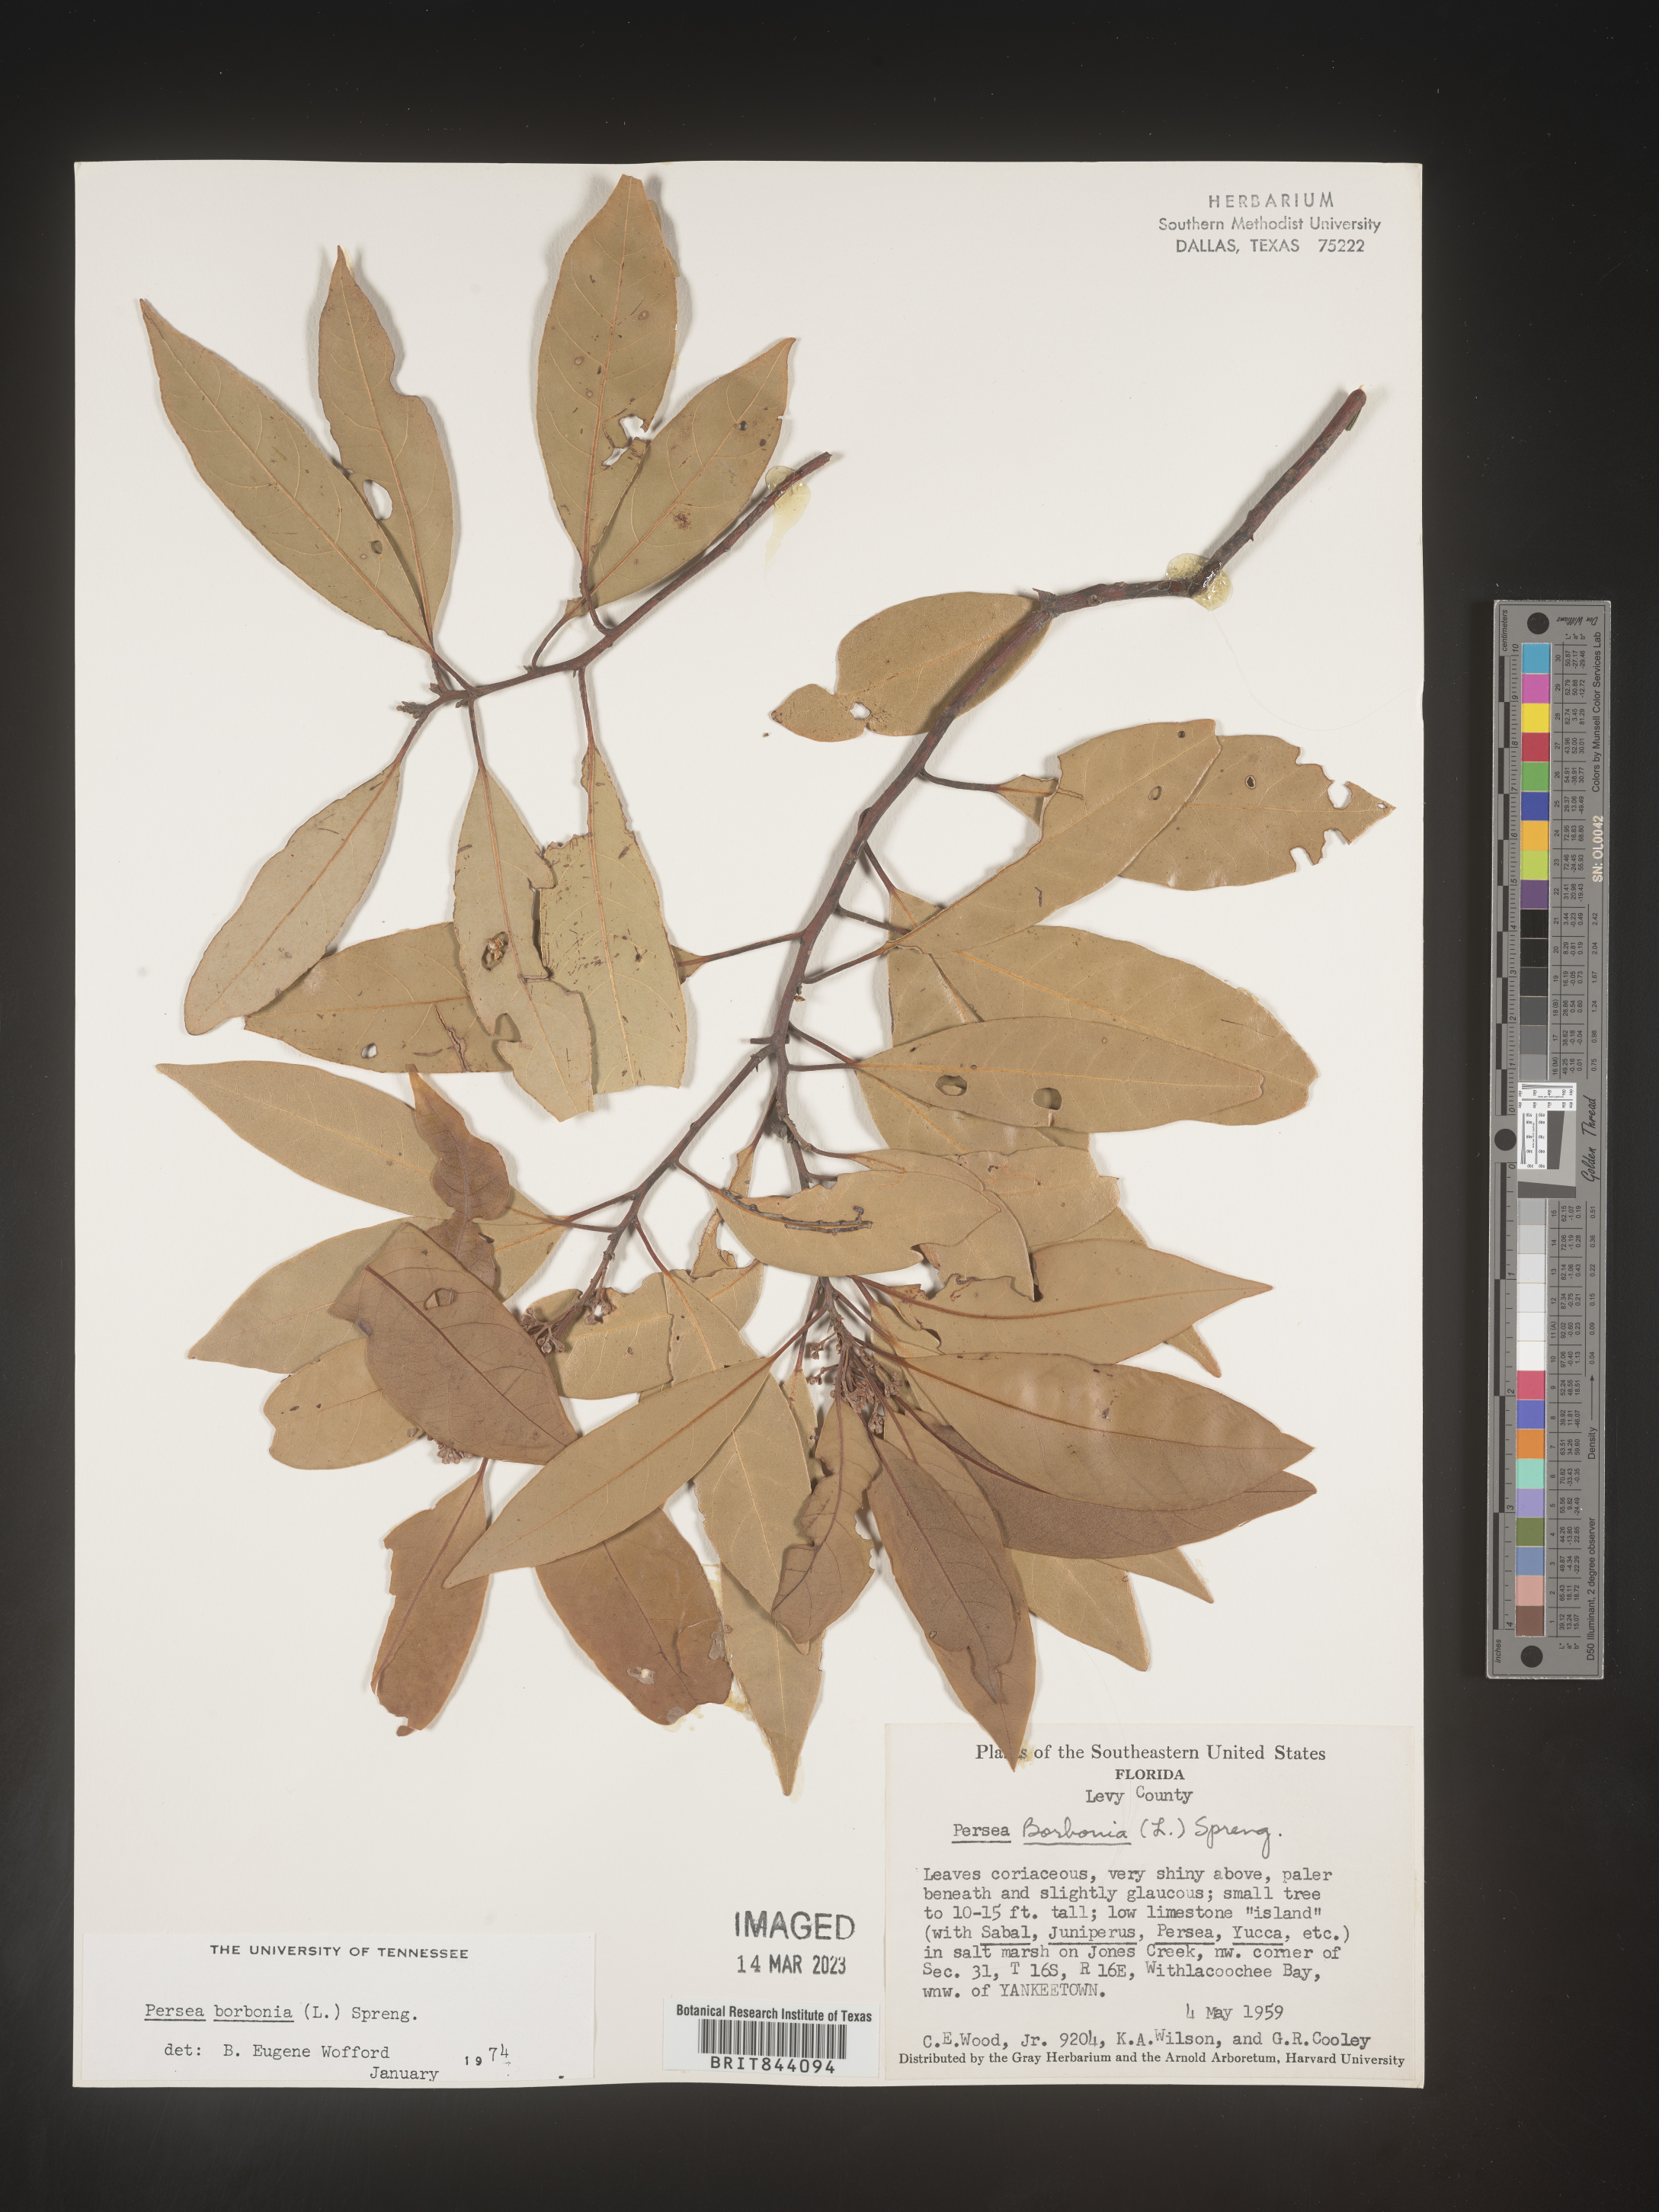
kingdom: Plantae
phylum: Tracheophyta
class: Magnoliopsida
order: Laurales
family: Lauraceae
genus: Persea
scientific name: Persea borbonia
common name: Redbay
